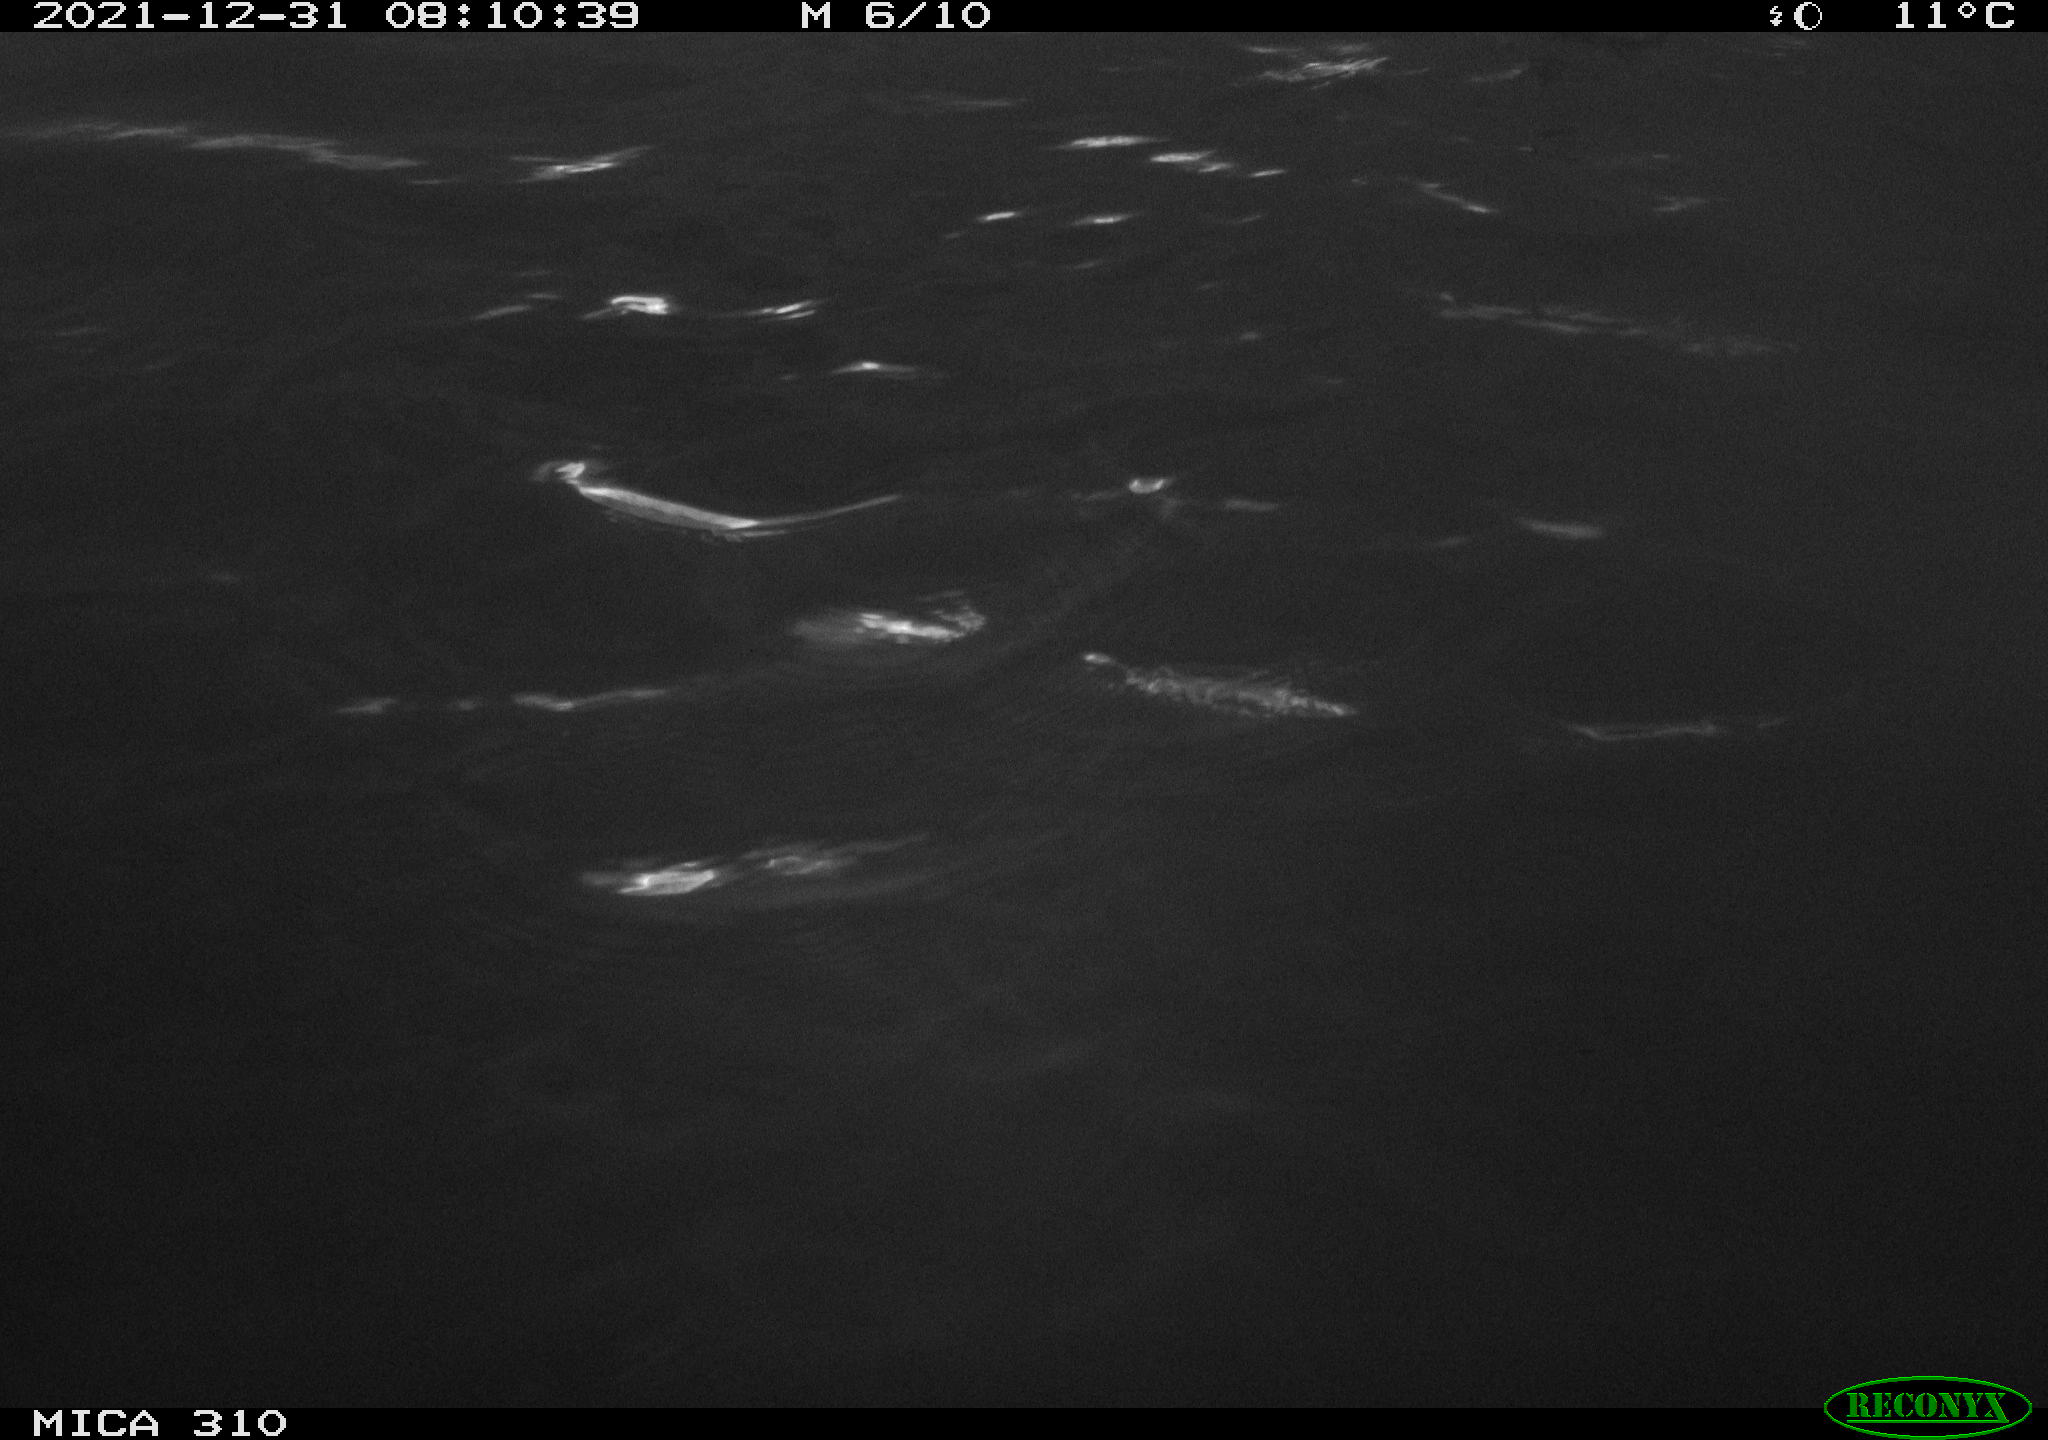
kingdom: Animalia
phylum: Chordata
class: Aves
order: Gruiformes
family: Rallidae
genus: Fulica
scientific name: Fulica atra
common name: Eurasian coot
